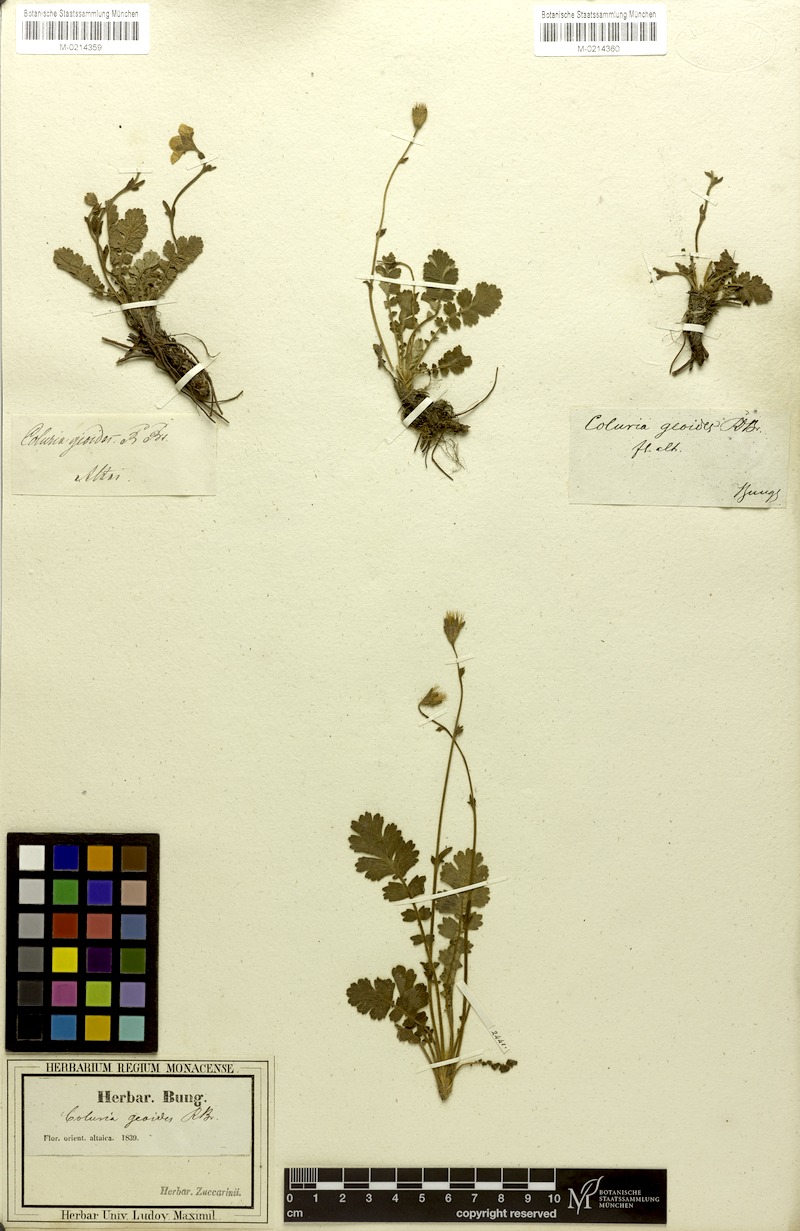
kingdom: Plantae
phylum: Tracheophyta
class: Magnoliopsida
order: Rosales
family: Rosaceae
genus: Geum
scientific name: Geum geoides
